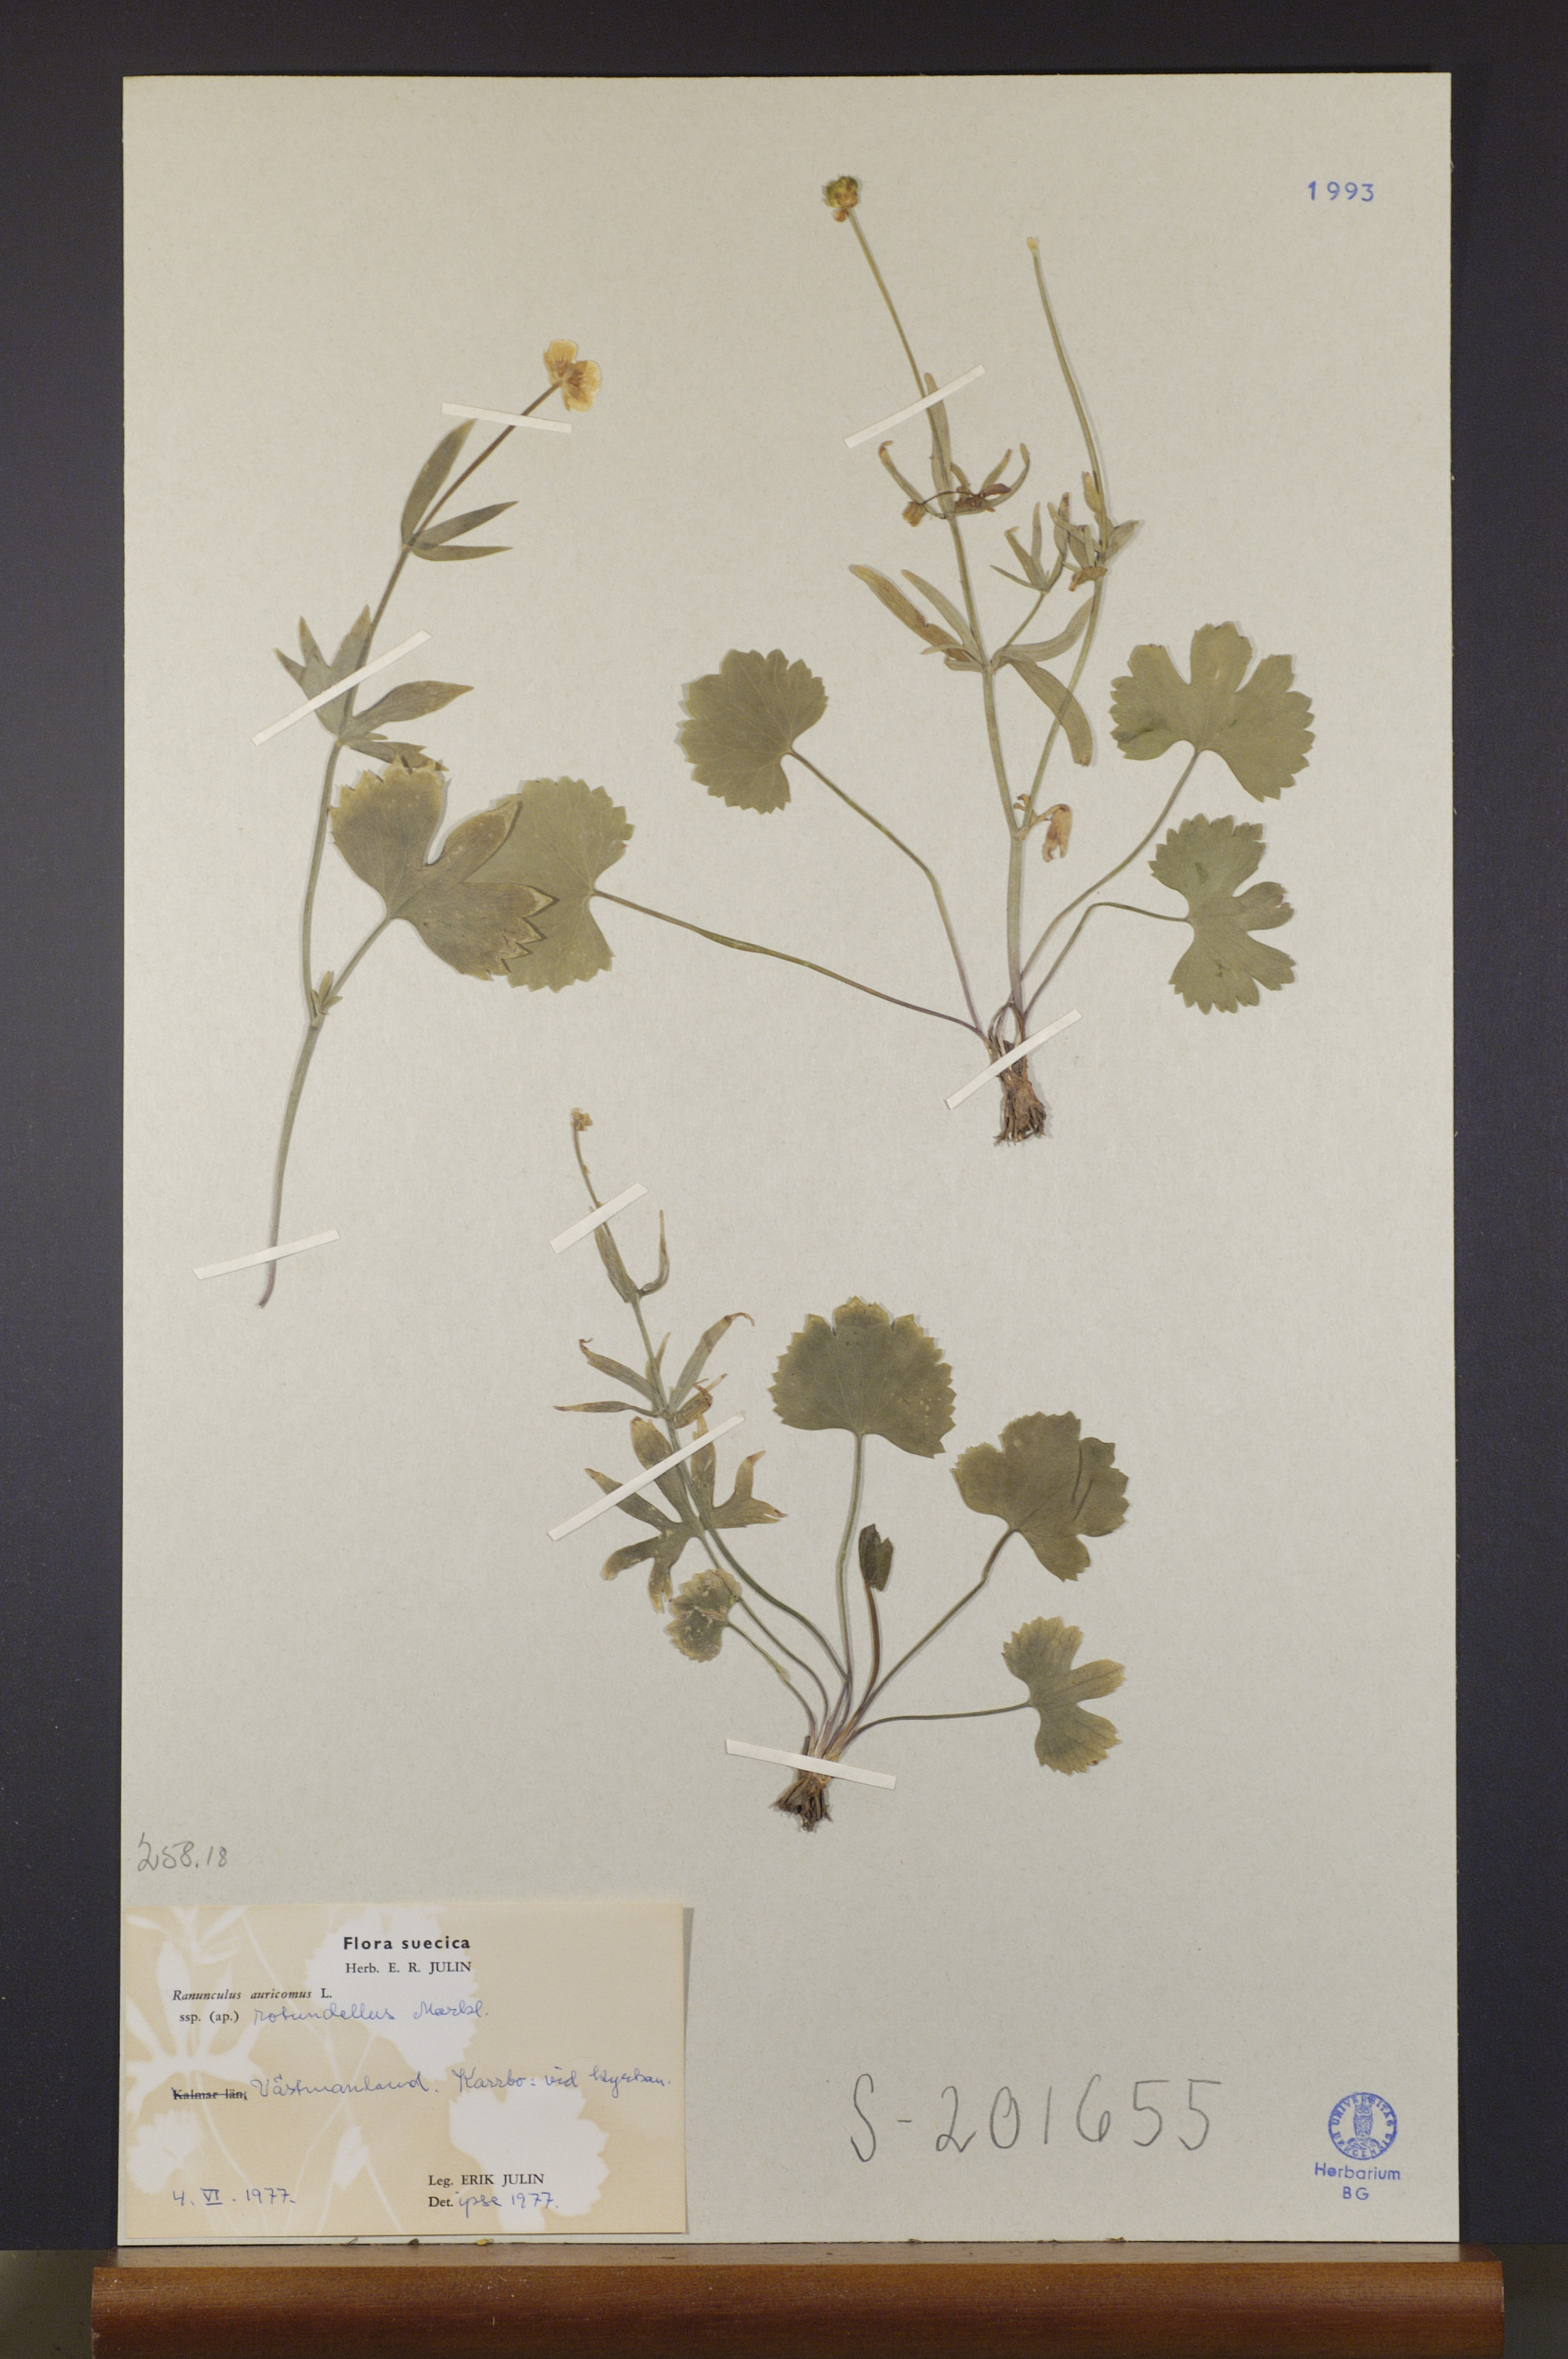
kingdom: Plantae
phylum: Tracheophyta
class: Magnoliopsida
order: Ranunculales
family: Ranunculaceae
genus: Ranunculus
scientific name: Ranunculus rotundellus
